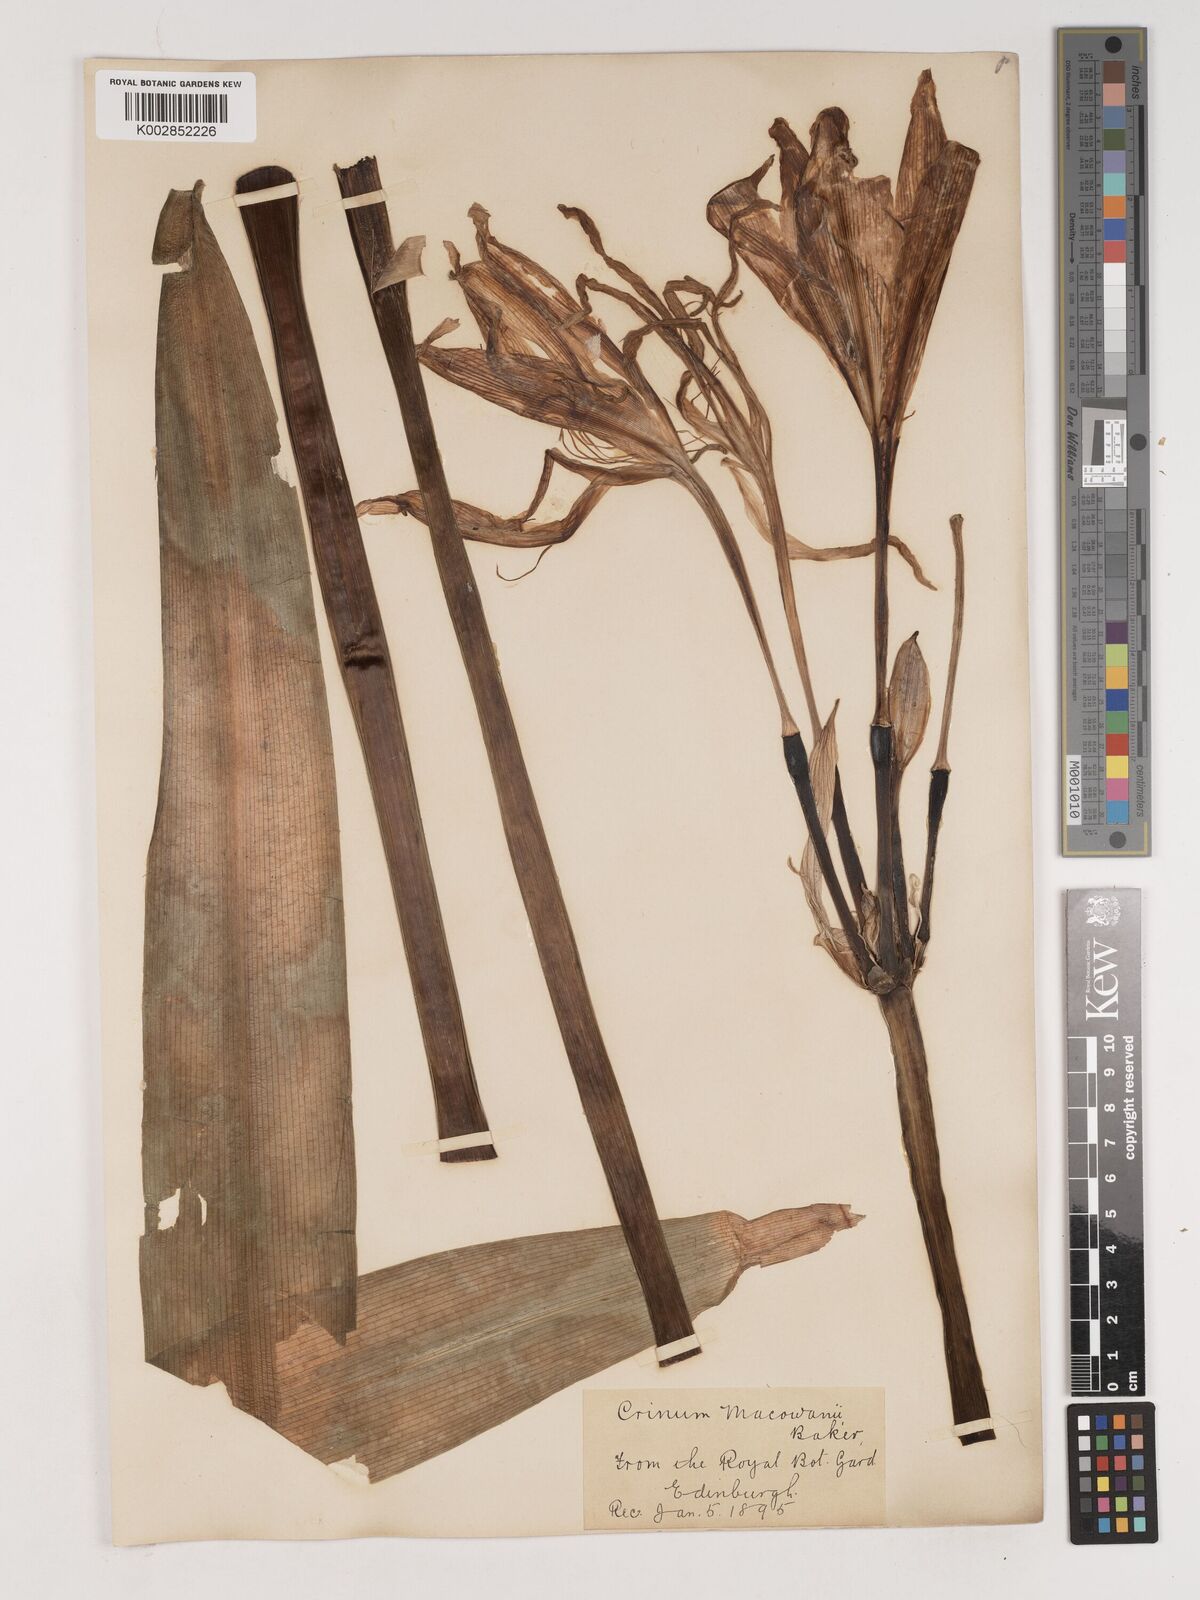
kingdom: Plantae
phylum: Tracheophyta
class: Liliopsida
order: Asparagales
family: Amaryllidaceae
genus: Crinum
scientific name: Crinum macowanii
